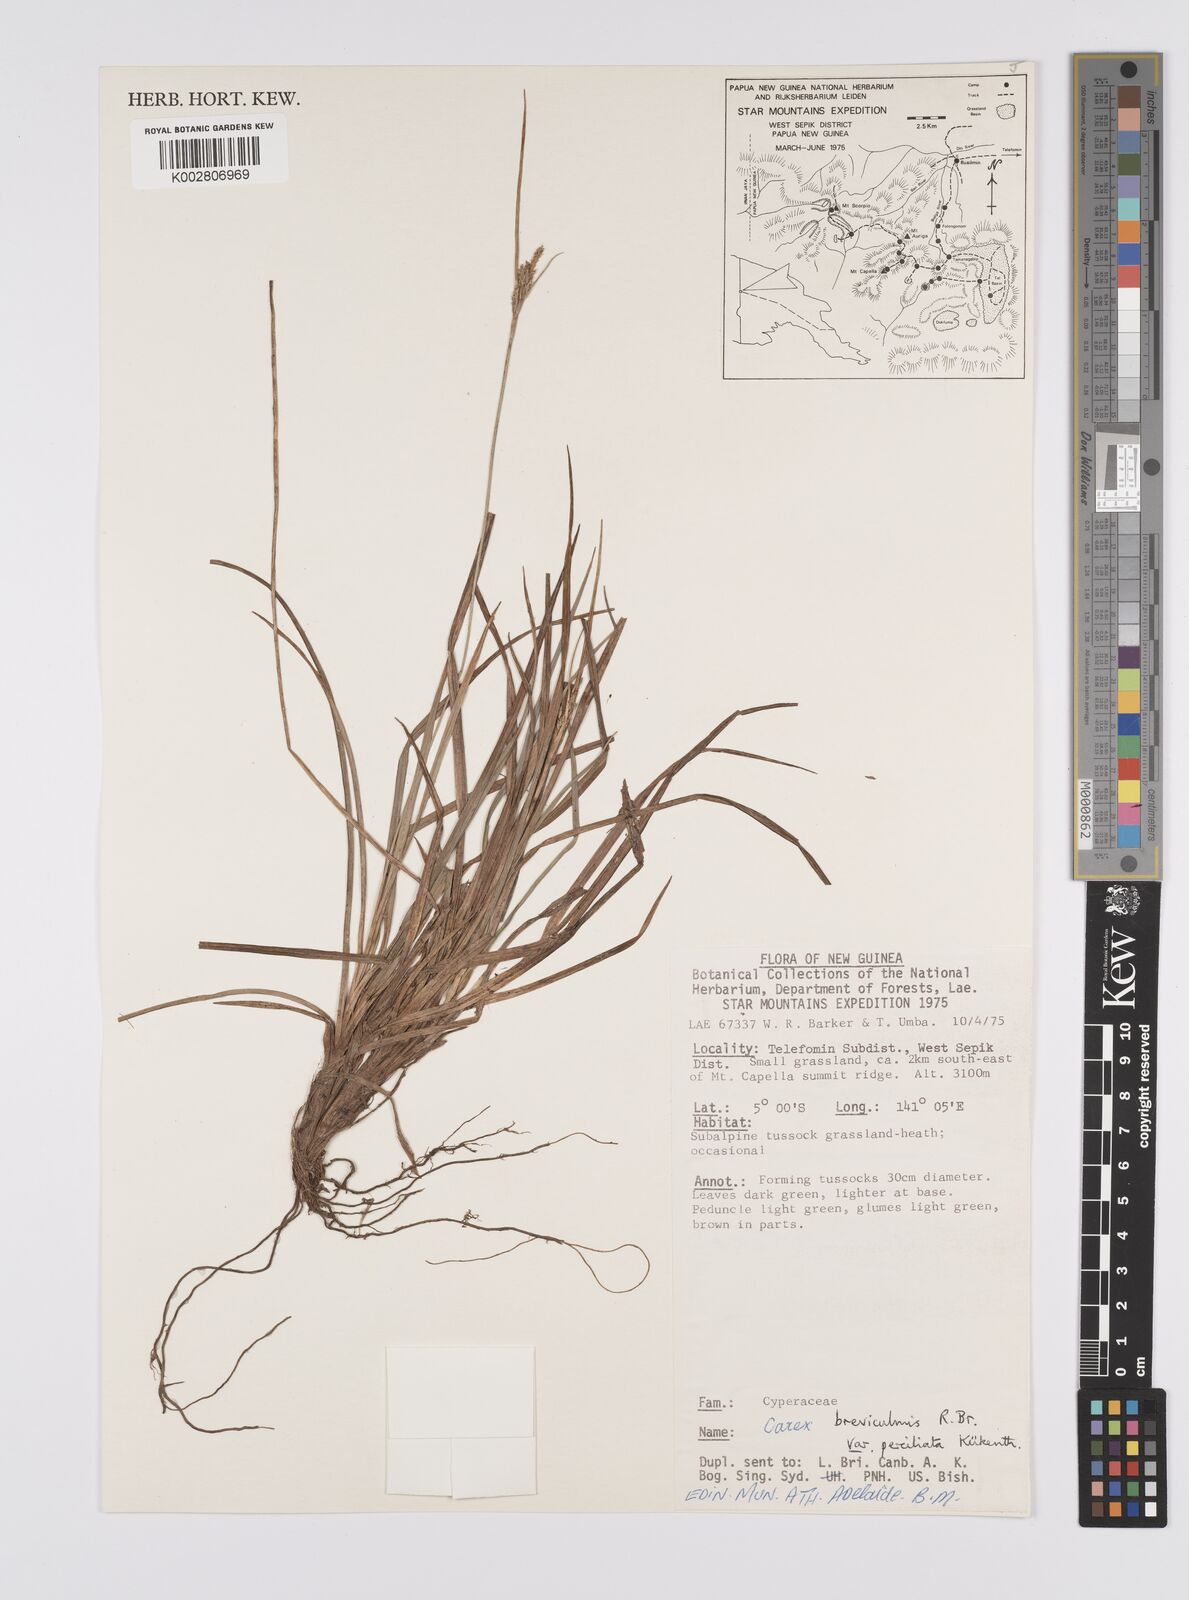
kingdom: Plantae
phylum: Tracheophyta
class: Liliopsida
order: Poales
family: Cyperaceae
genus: Carex
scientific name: Carex breviculmis
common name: Asian shortstem sedge
